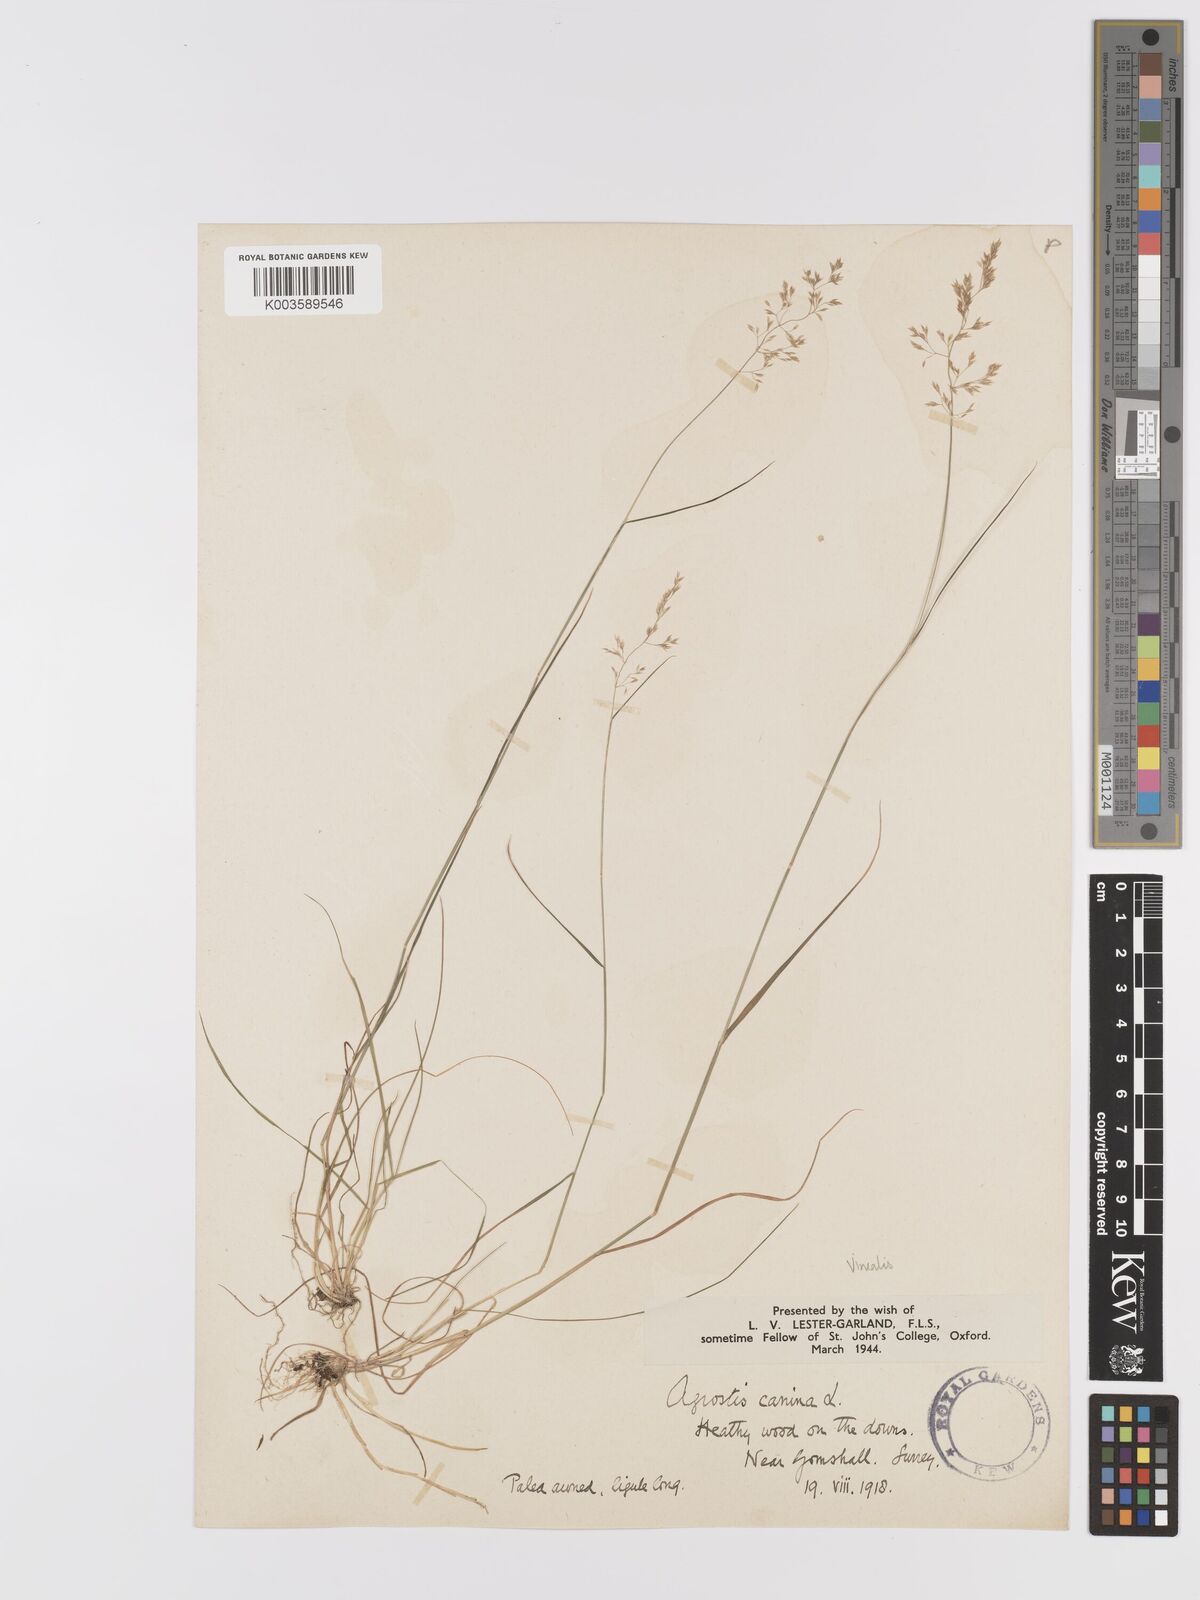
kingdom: Plantae
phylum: Tracheophyta
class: Liliopsida
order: Poales
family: Poaceae
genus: Agrostis
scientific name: Agrostis
